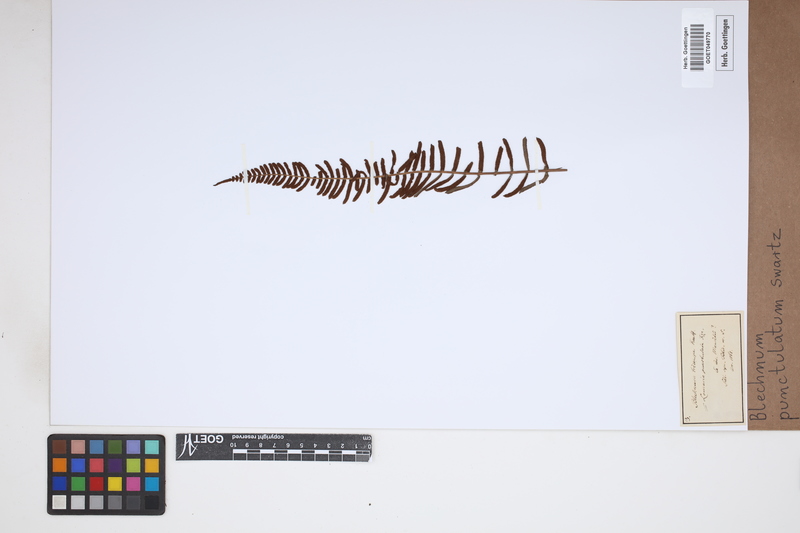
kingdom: Plantae
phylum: Tracheophyta
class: Polypodiopsida
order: Polypodiales
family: Blechnaceae
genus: Blechnum
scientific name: Blechnum punctulatum
